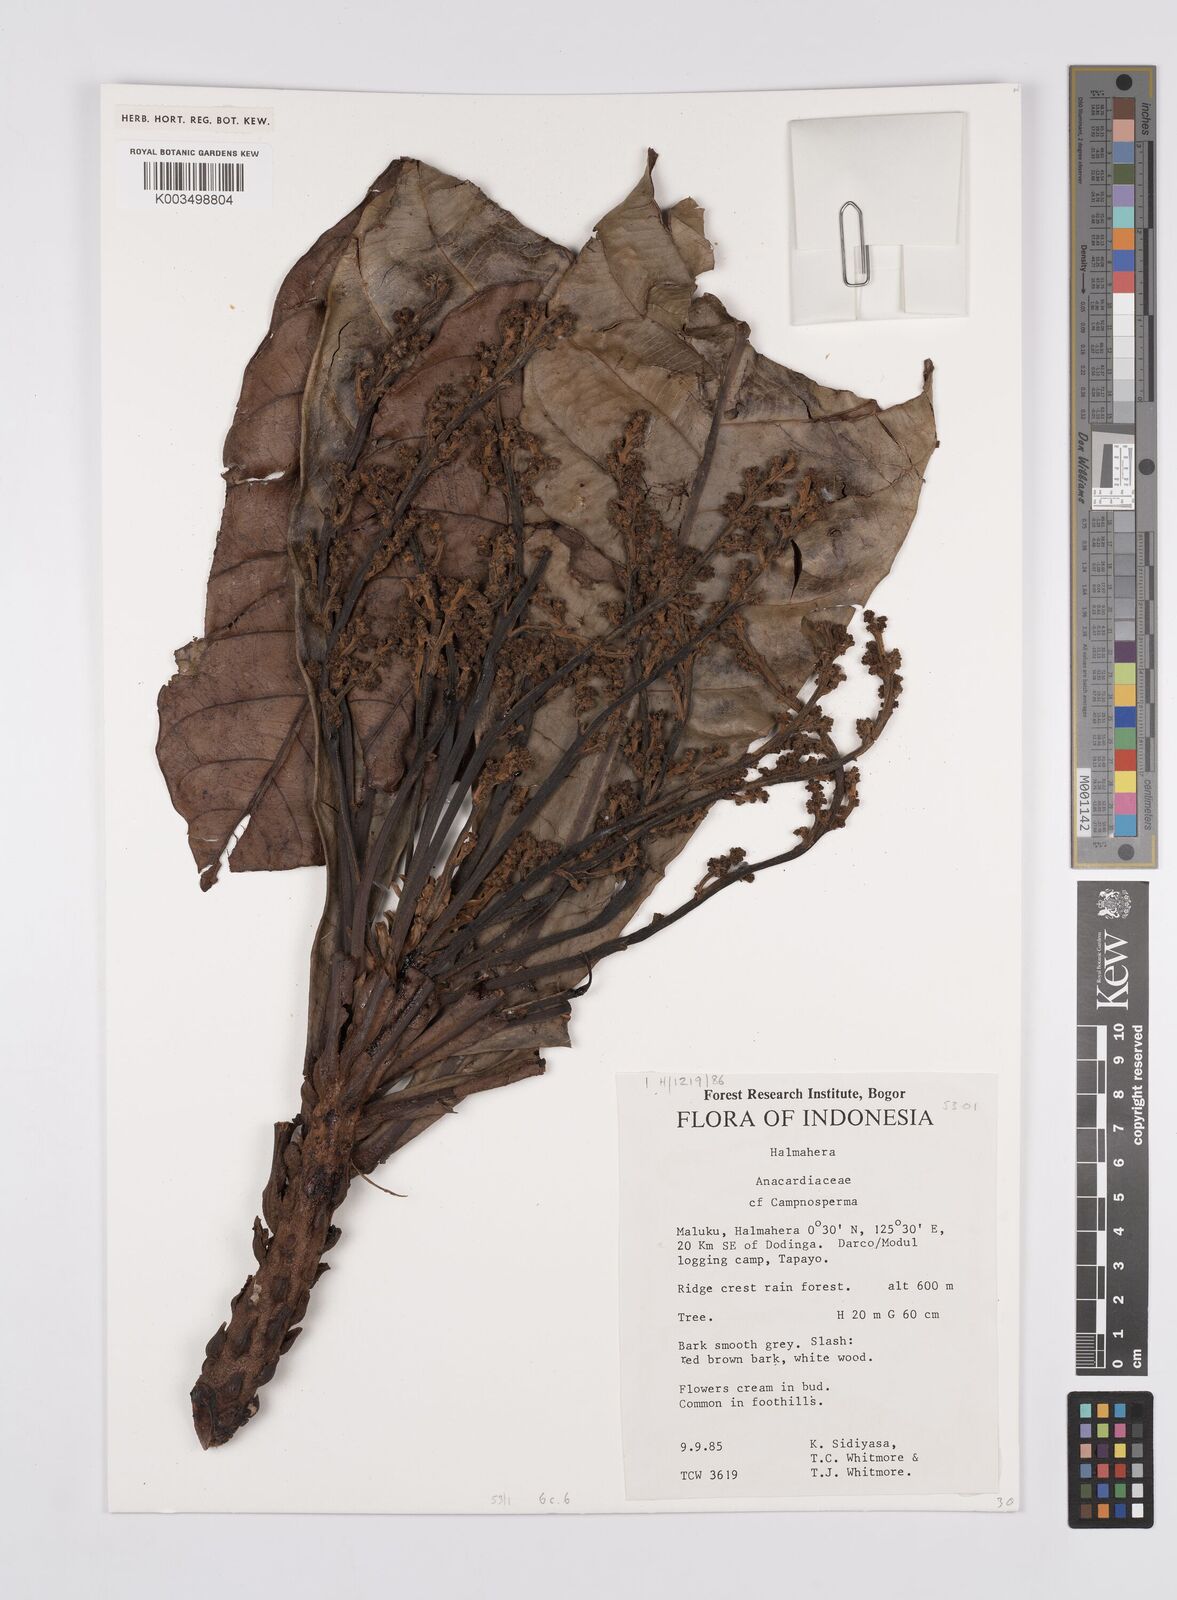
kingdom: Plantae
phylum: Tracheophyta
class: Magnoliopsida
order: Sapindales
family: Anacardiaceae
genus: Campnosperma
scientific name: Campnosperma
